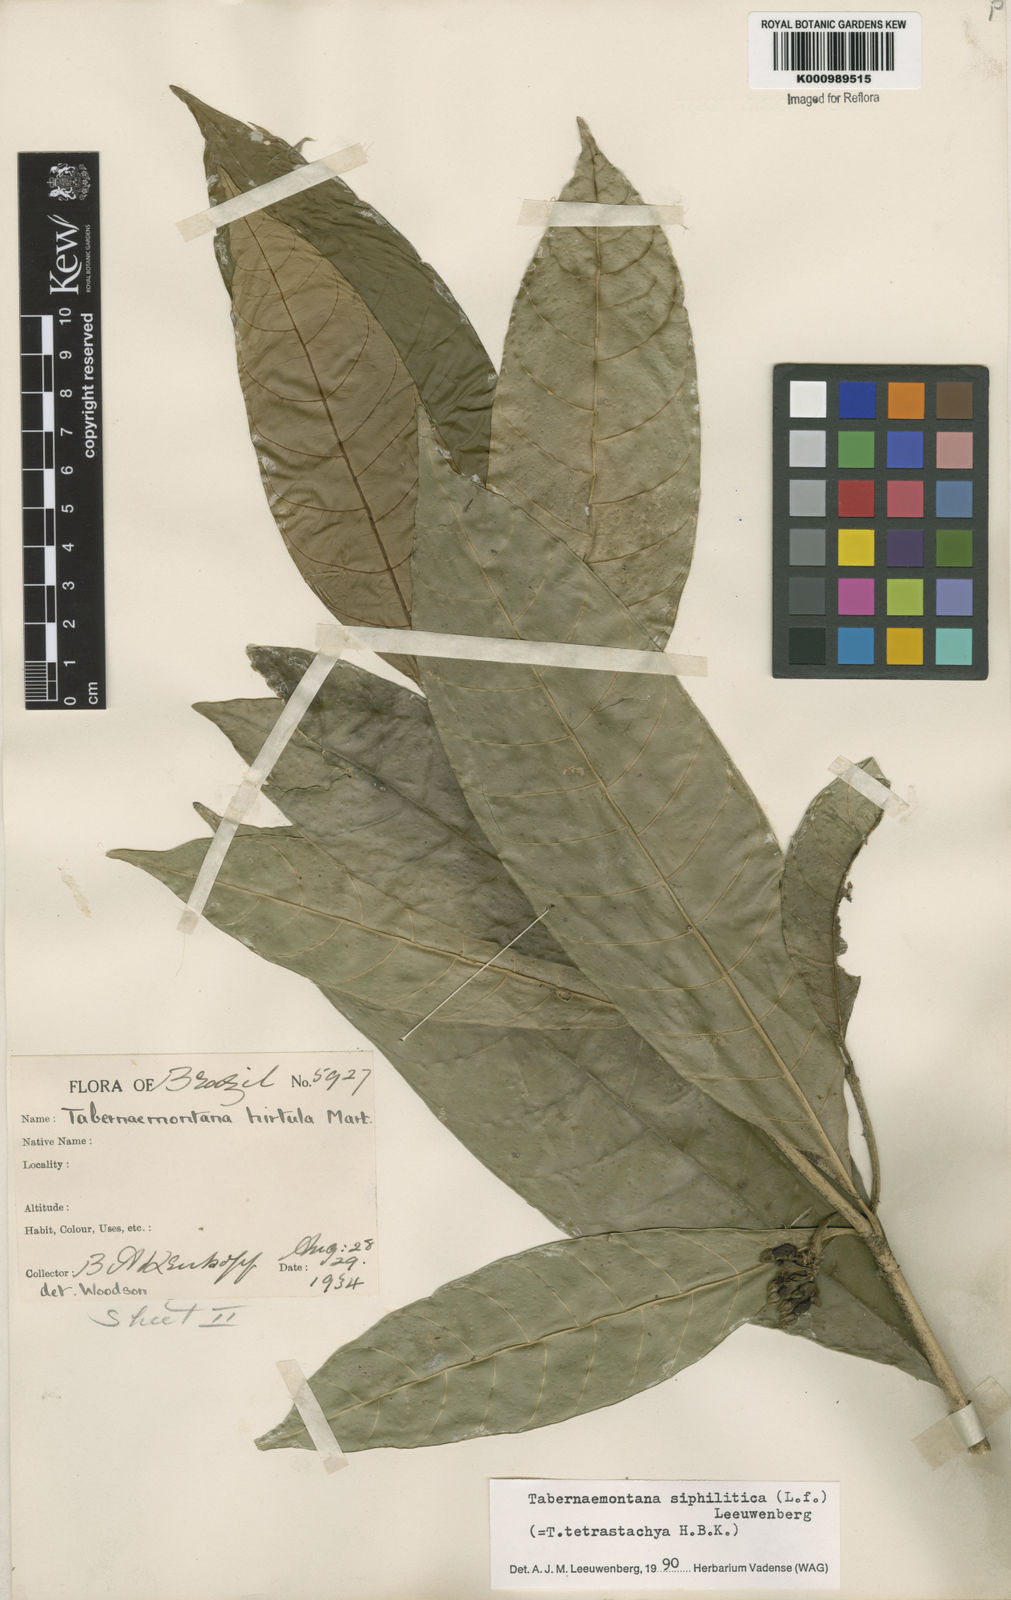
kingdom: Plantae
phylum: Tracheophyta
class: Magnoliopsida
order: Gentianales
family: Apocynaceae
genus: Tabernaemontana
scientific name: Tabernaemontana siphilitica
